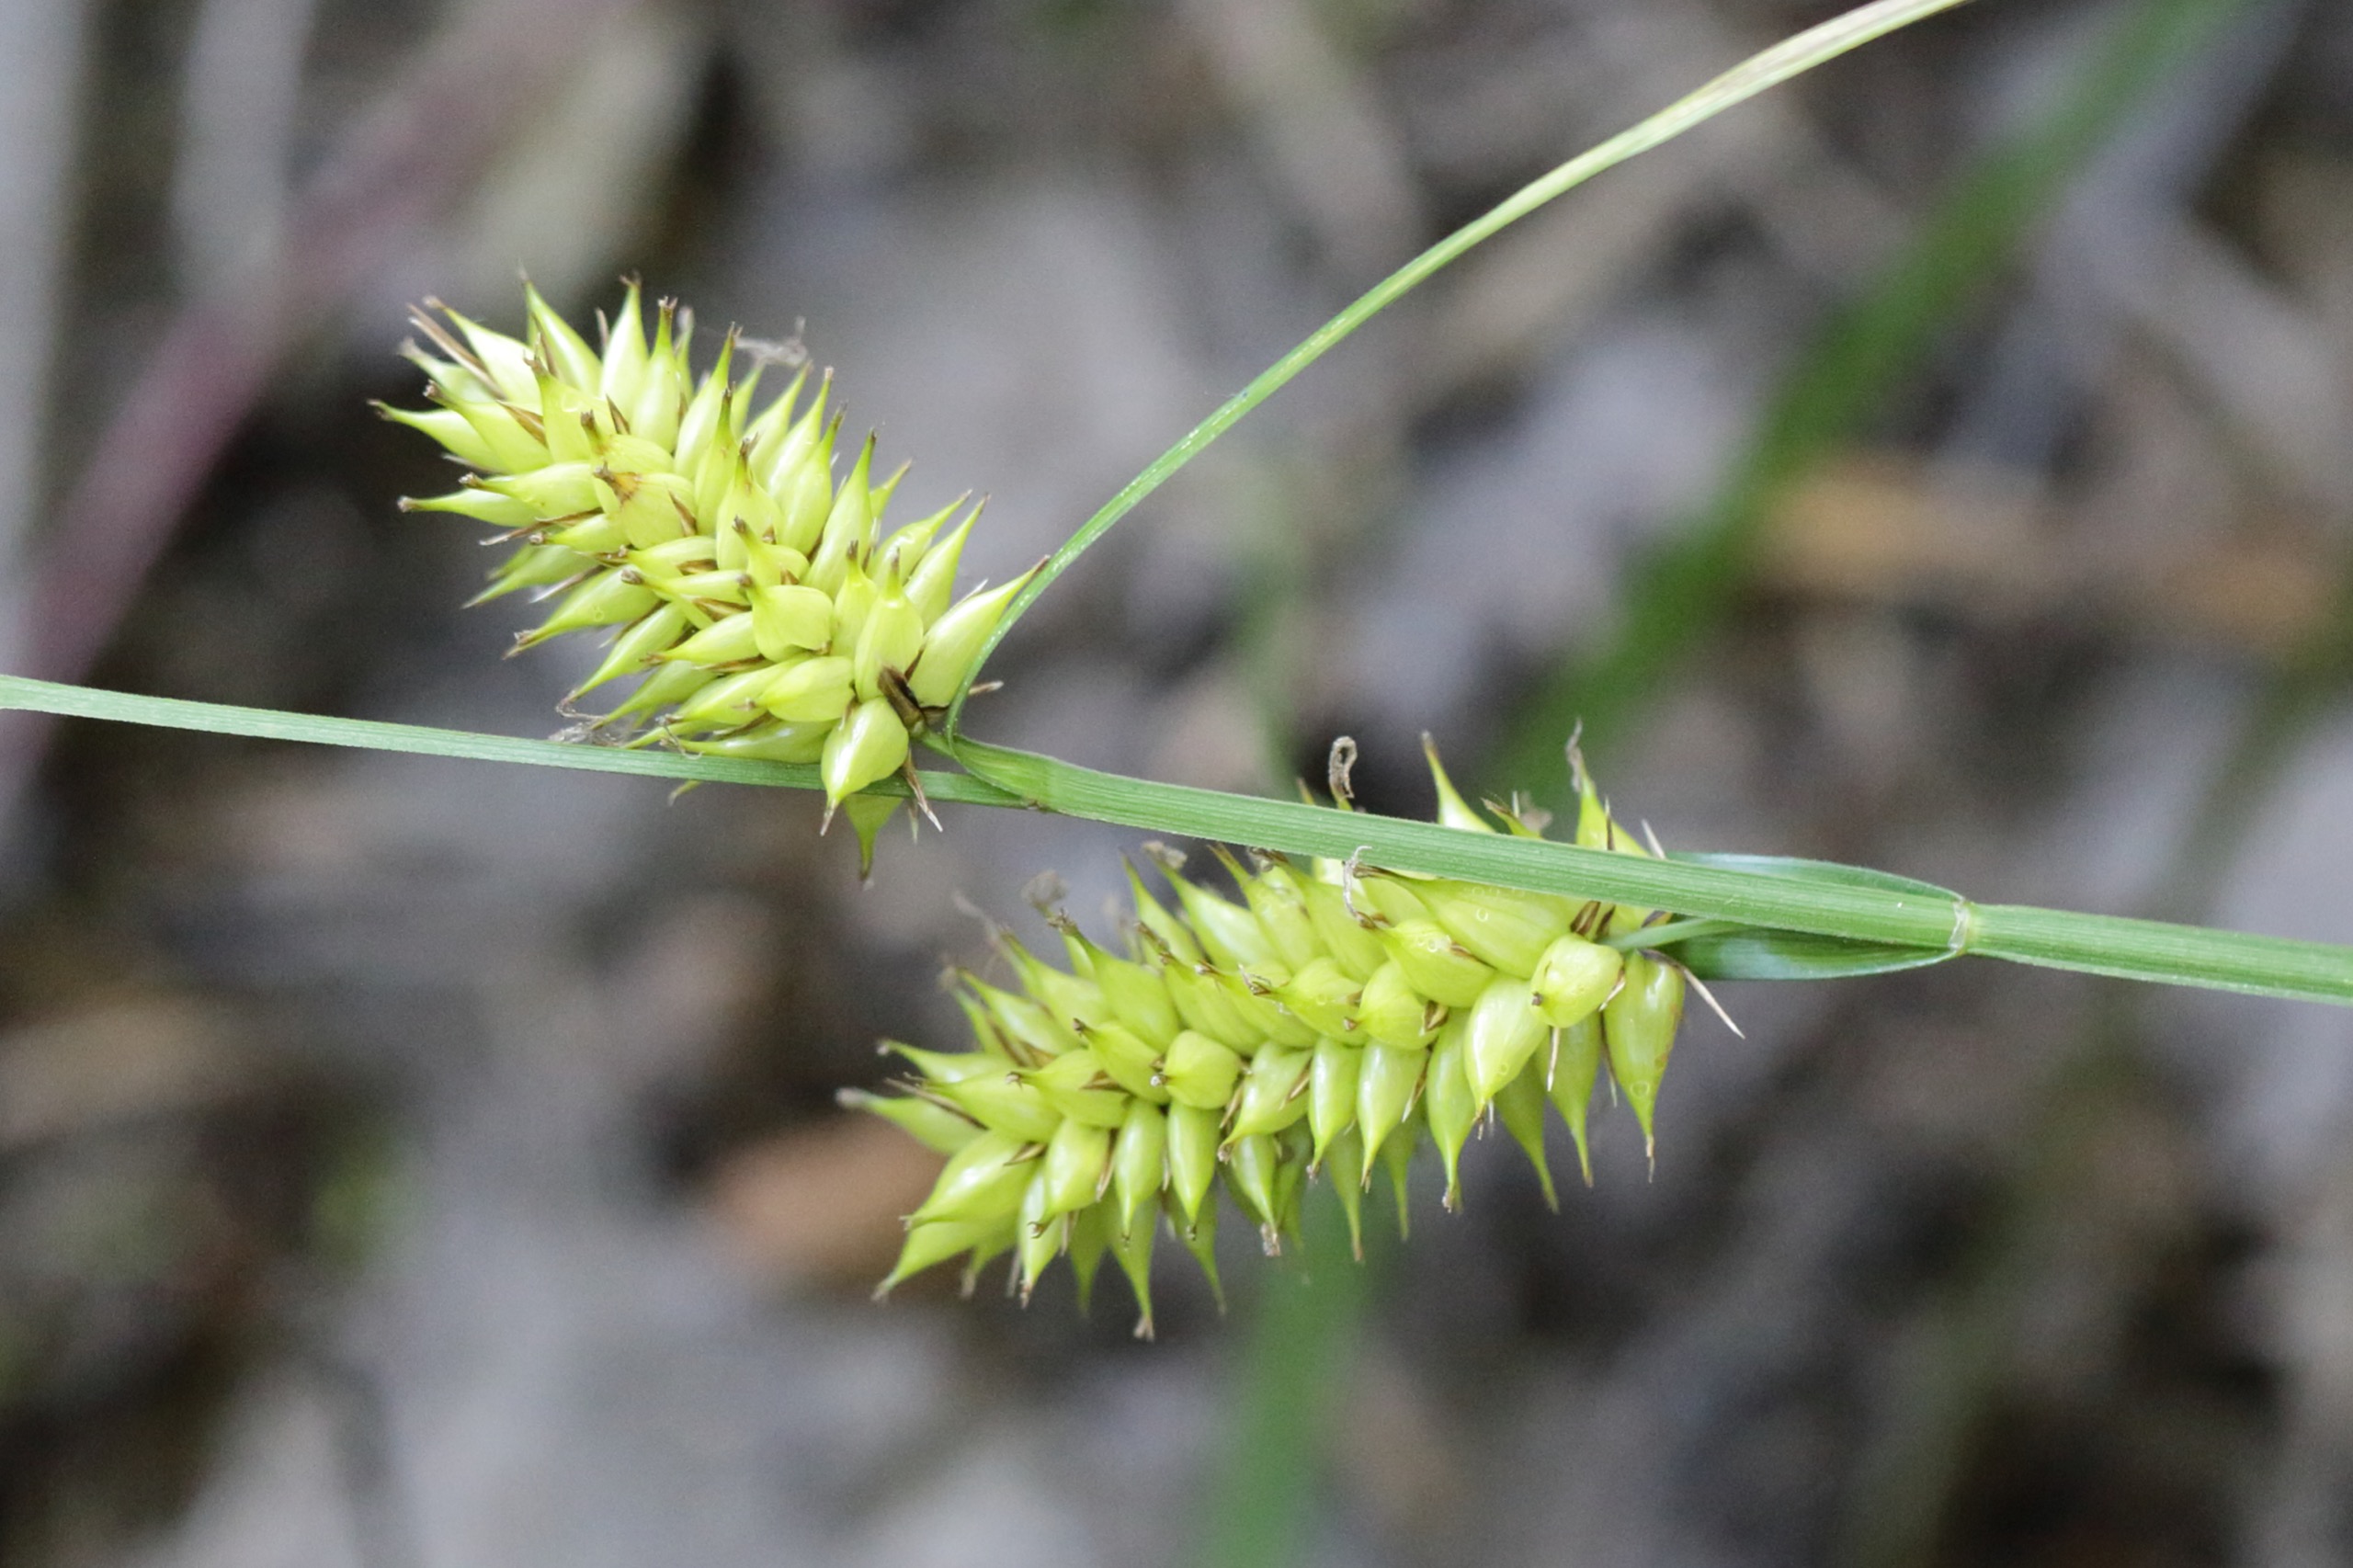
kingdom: Plantae
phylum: Tracheophyta
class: Liliopsida
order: Poales
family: Cyperaceae
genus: Carex
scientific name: Carex vesicaria
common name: Blære-star
